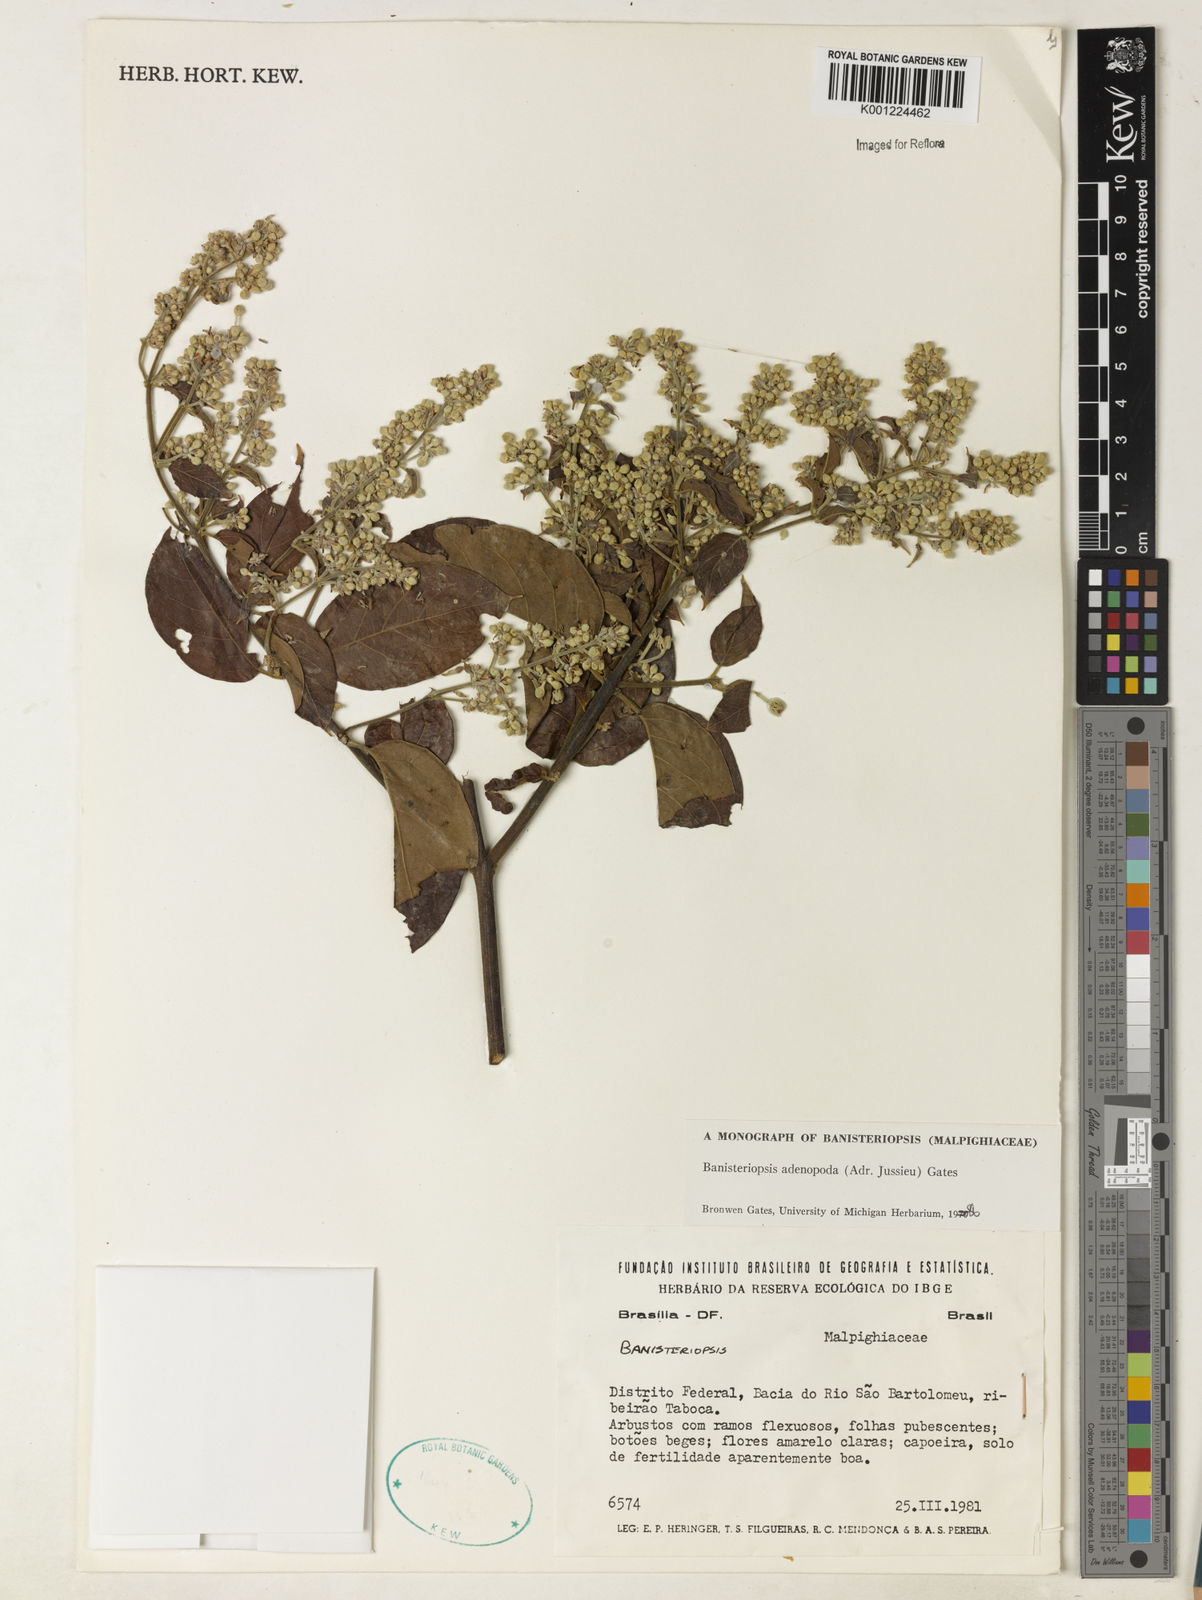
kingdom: Plantae
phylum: Tracheophyta
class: Magnoliopsida
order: Malpighiales
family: Malpighiaceae
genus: Banisteriopsis
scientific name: Banisteriopsis adenopoda
